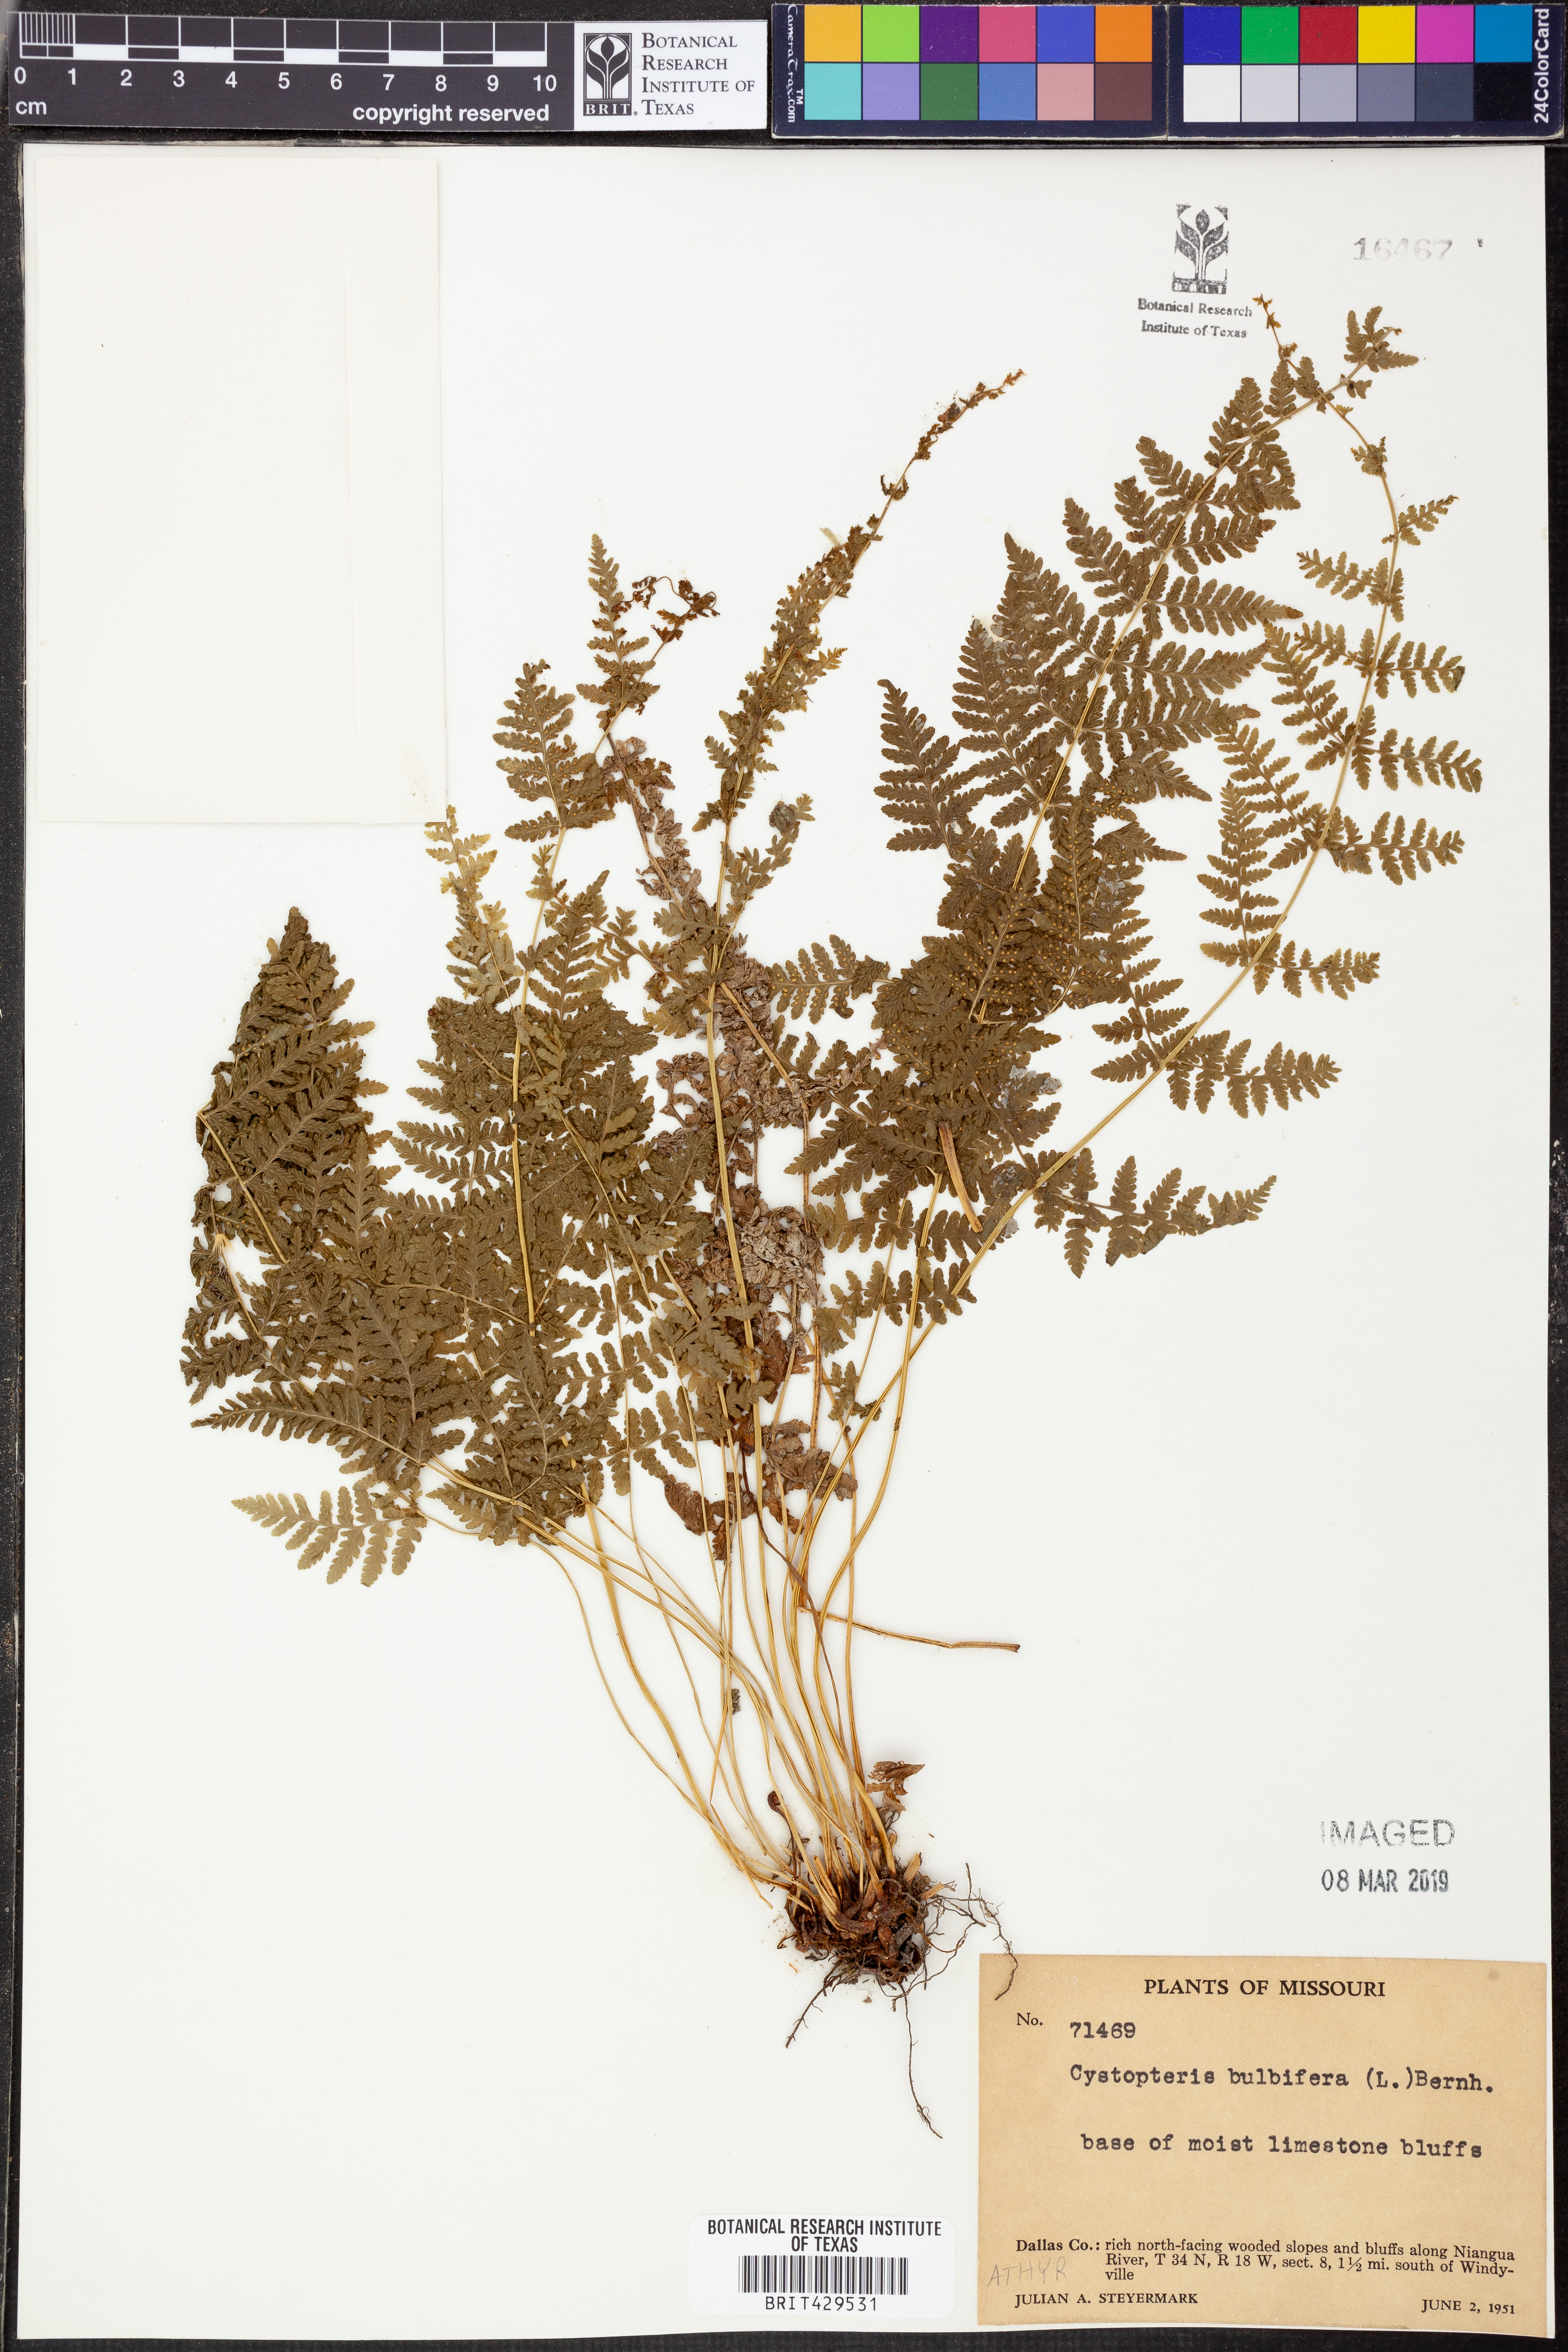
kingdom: Plantae
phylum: Tracheophyta
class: Polypodiopsida
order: Polypodiales
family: Cystopteridaceae
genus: Cystopteris
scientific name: Cystopteris bulbifera
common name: Bulblet bladder fern
